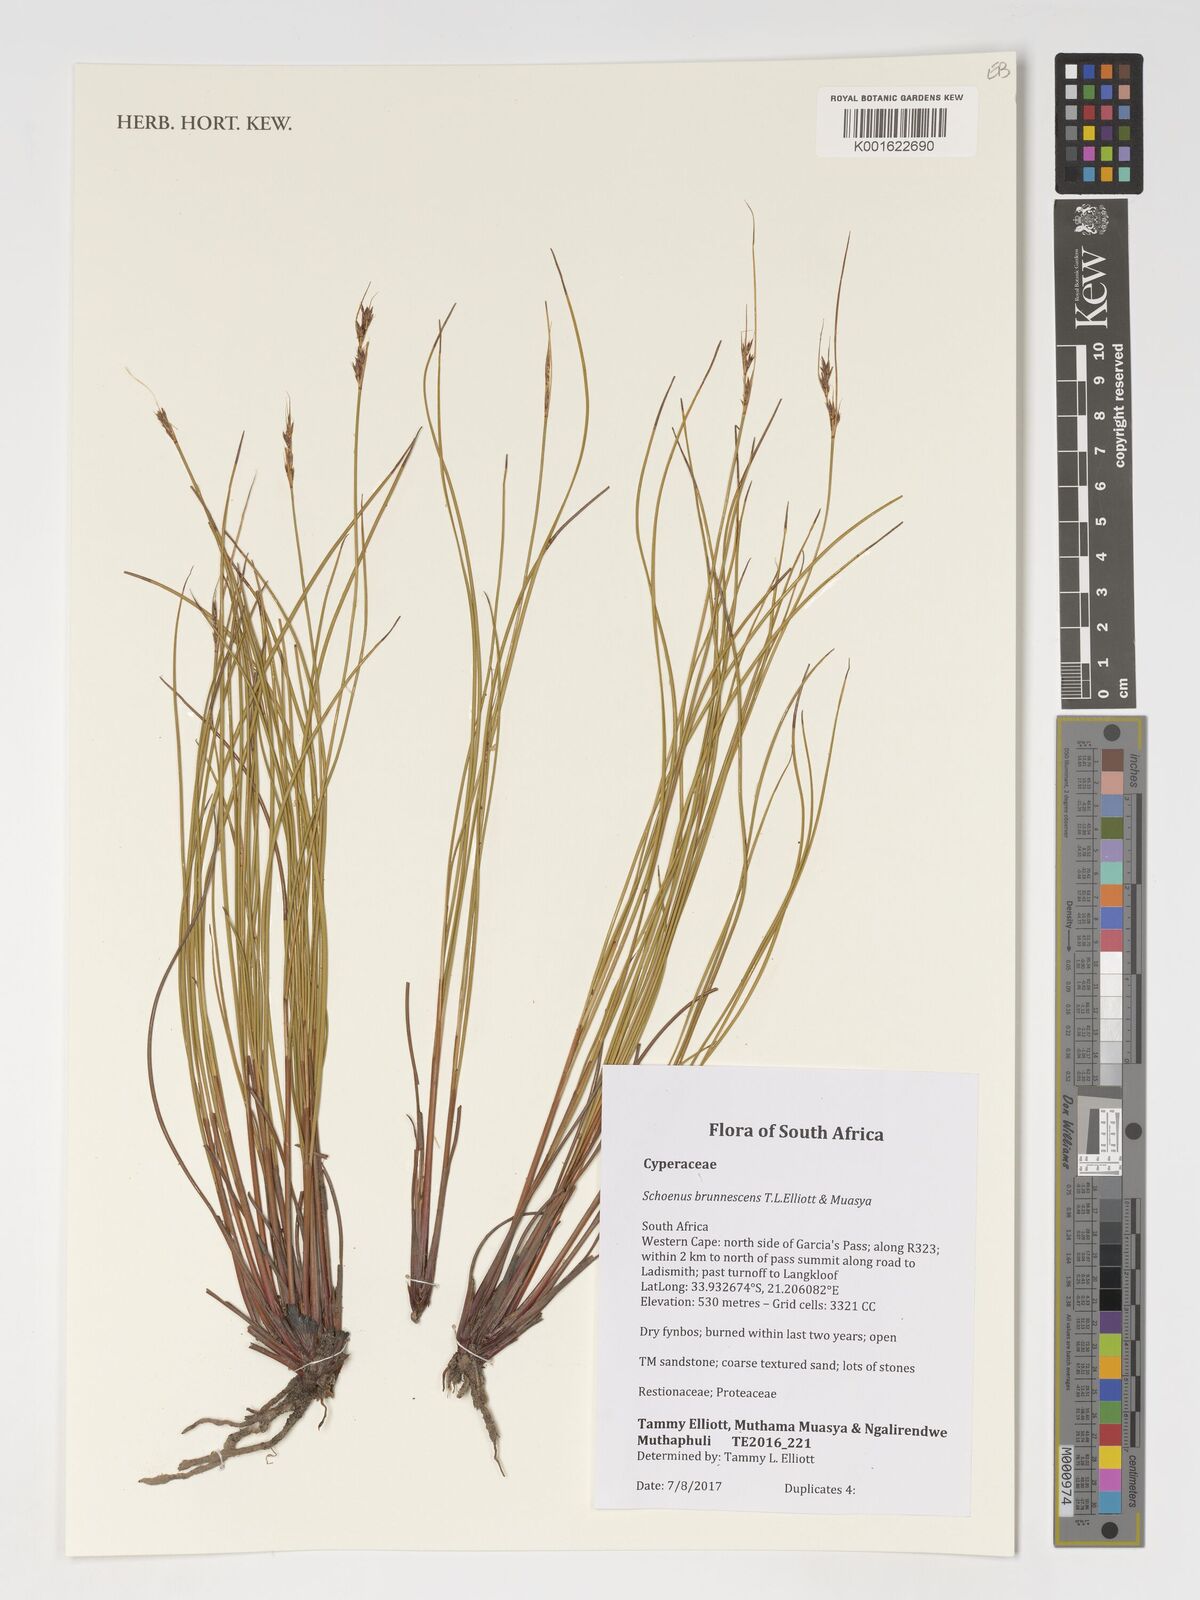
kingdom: Plantae
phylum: Tracheophyta
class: Liliopsida
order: Poales
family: Cyperaceae
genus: Schoenus
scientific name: Schoenus
